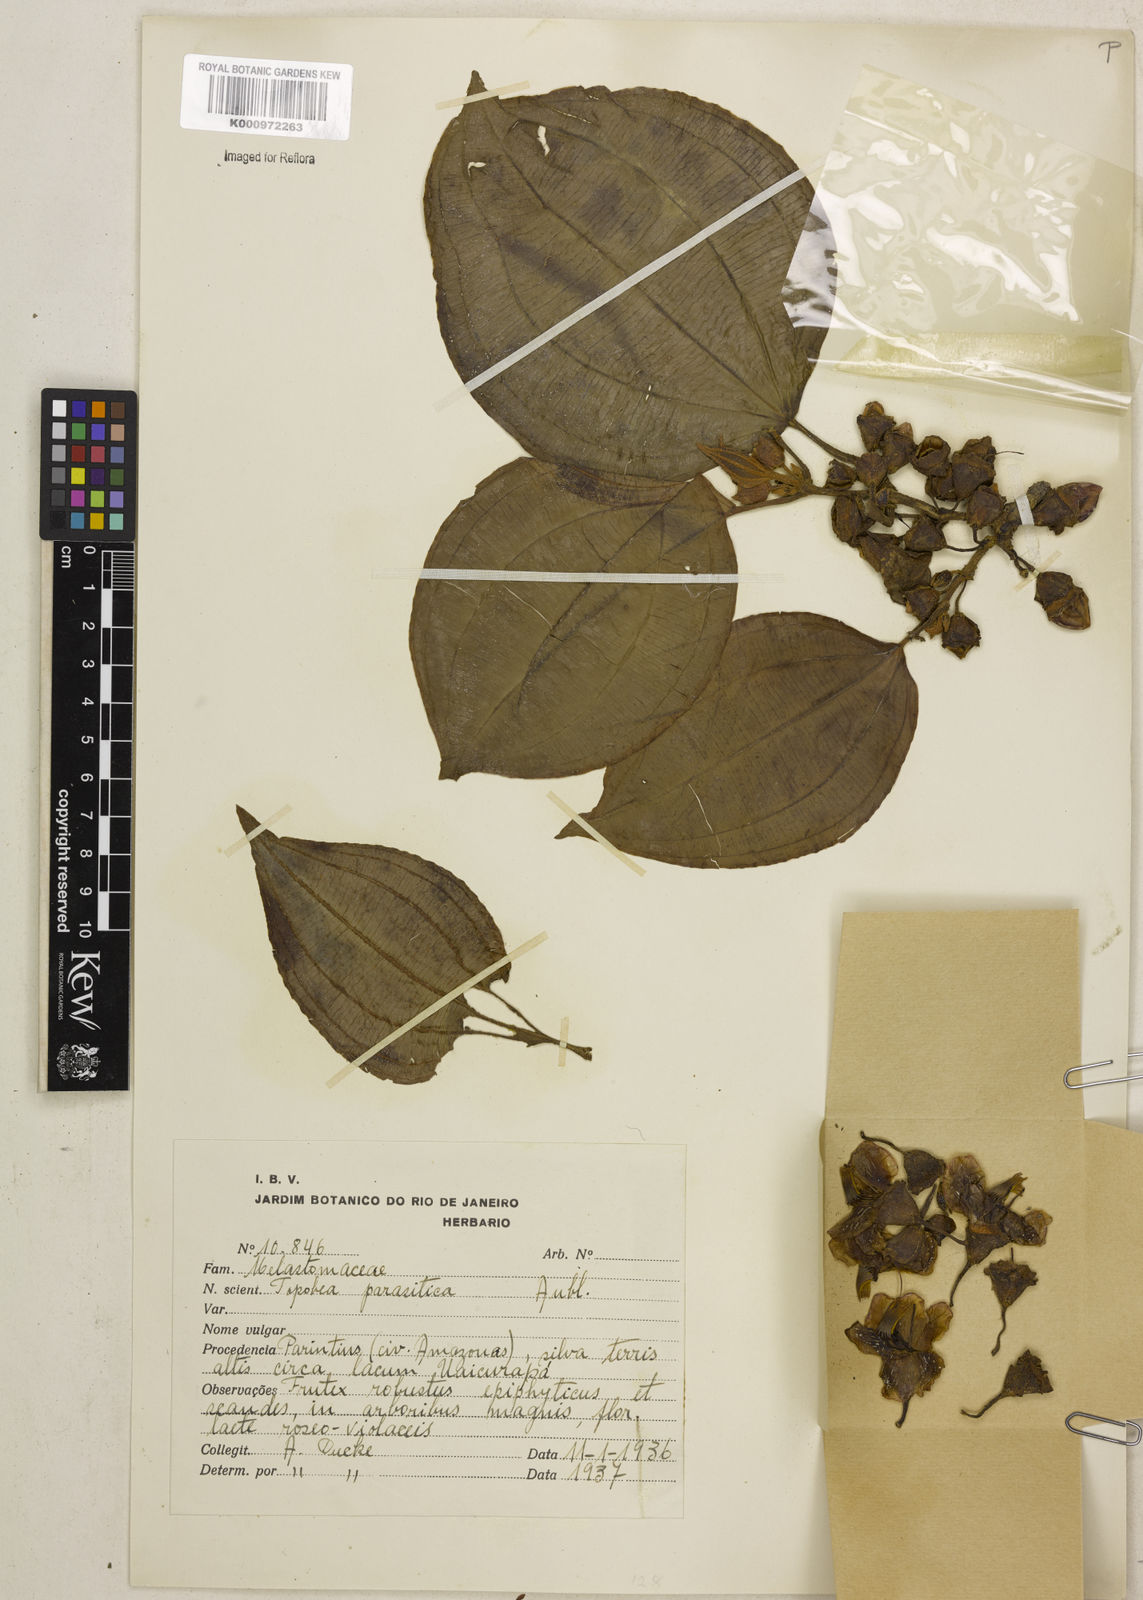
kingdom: Plantae
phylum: Tracheophyta
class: Magnoliopsida
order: Myrtales
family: Melastomataceae
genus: Blakea
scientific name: Blakea parasitica
